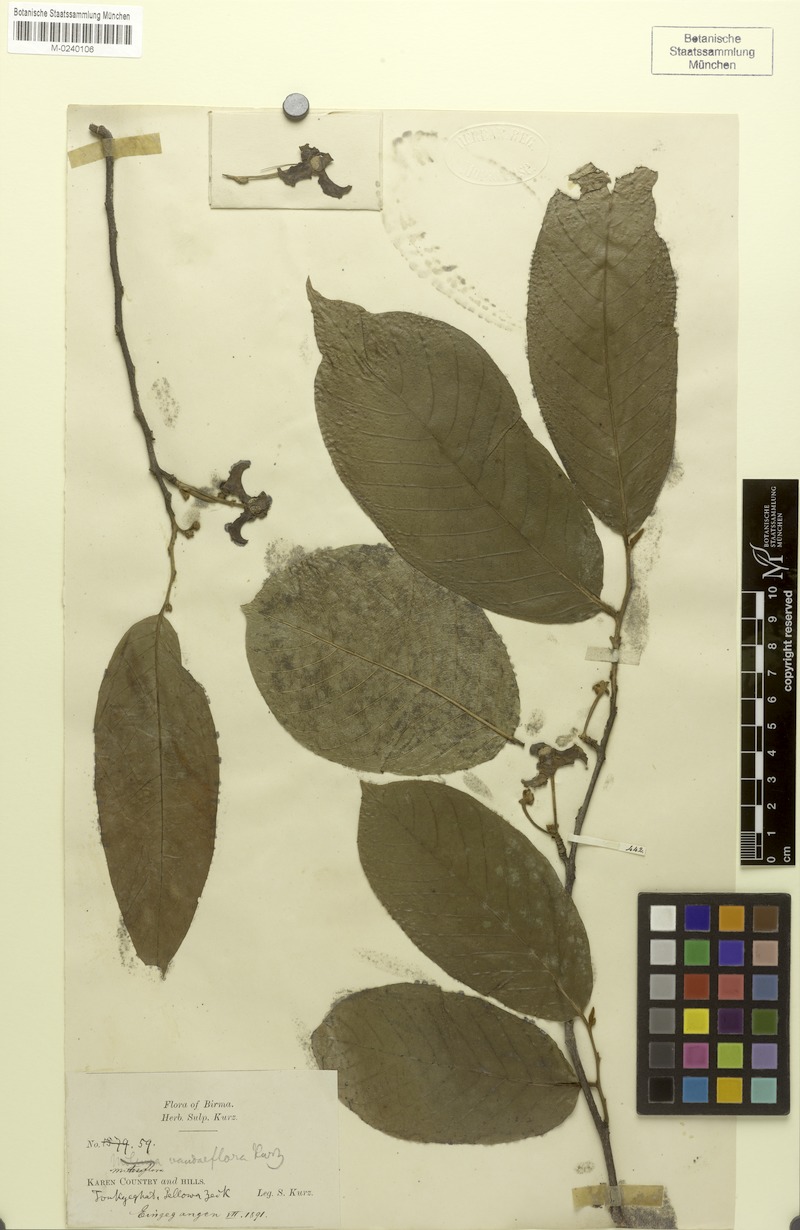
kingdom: Plantae
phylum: Tracheophyta
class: Magnoliopsida
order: Magnoliales
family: Annonaceae
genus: Mitrephora
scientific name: Mitrephora tomentosa
